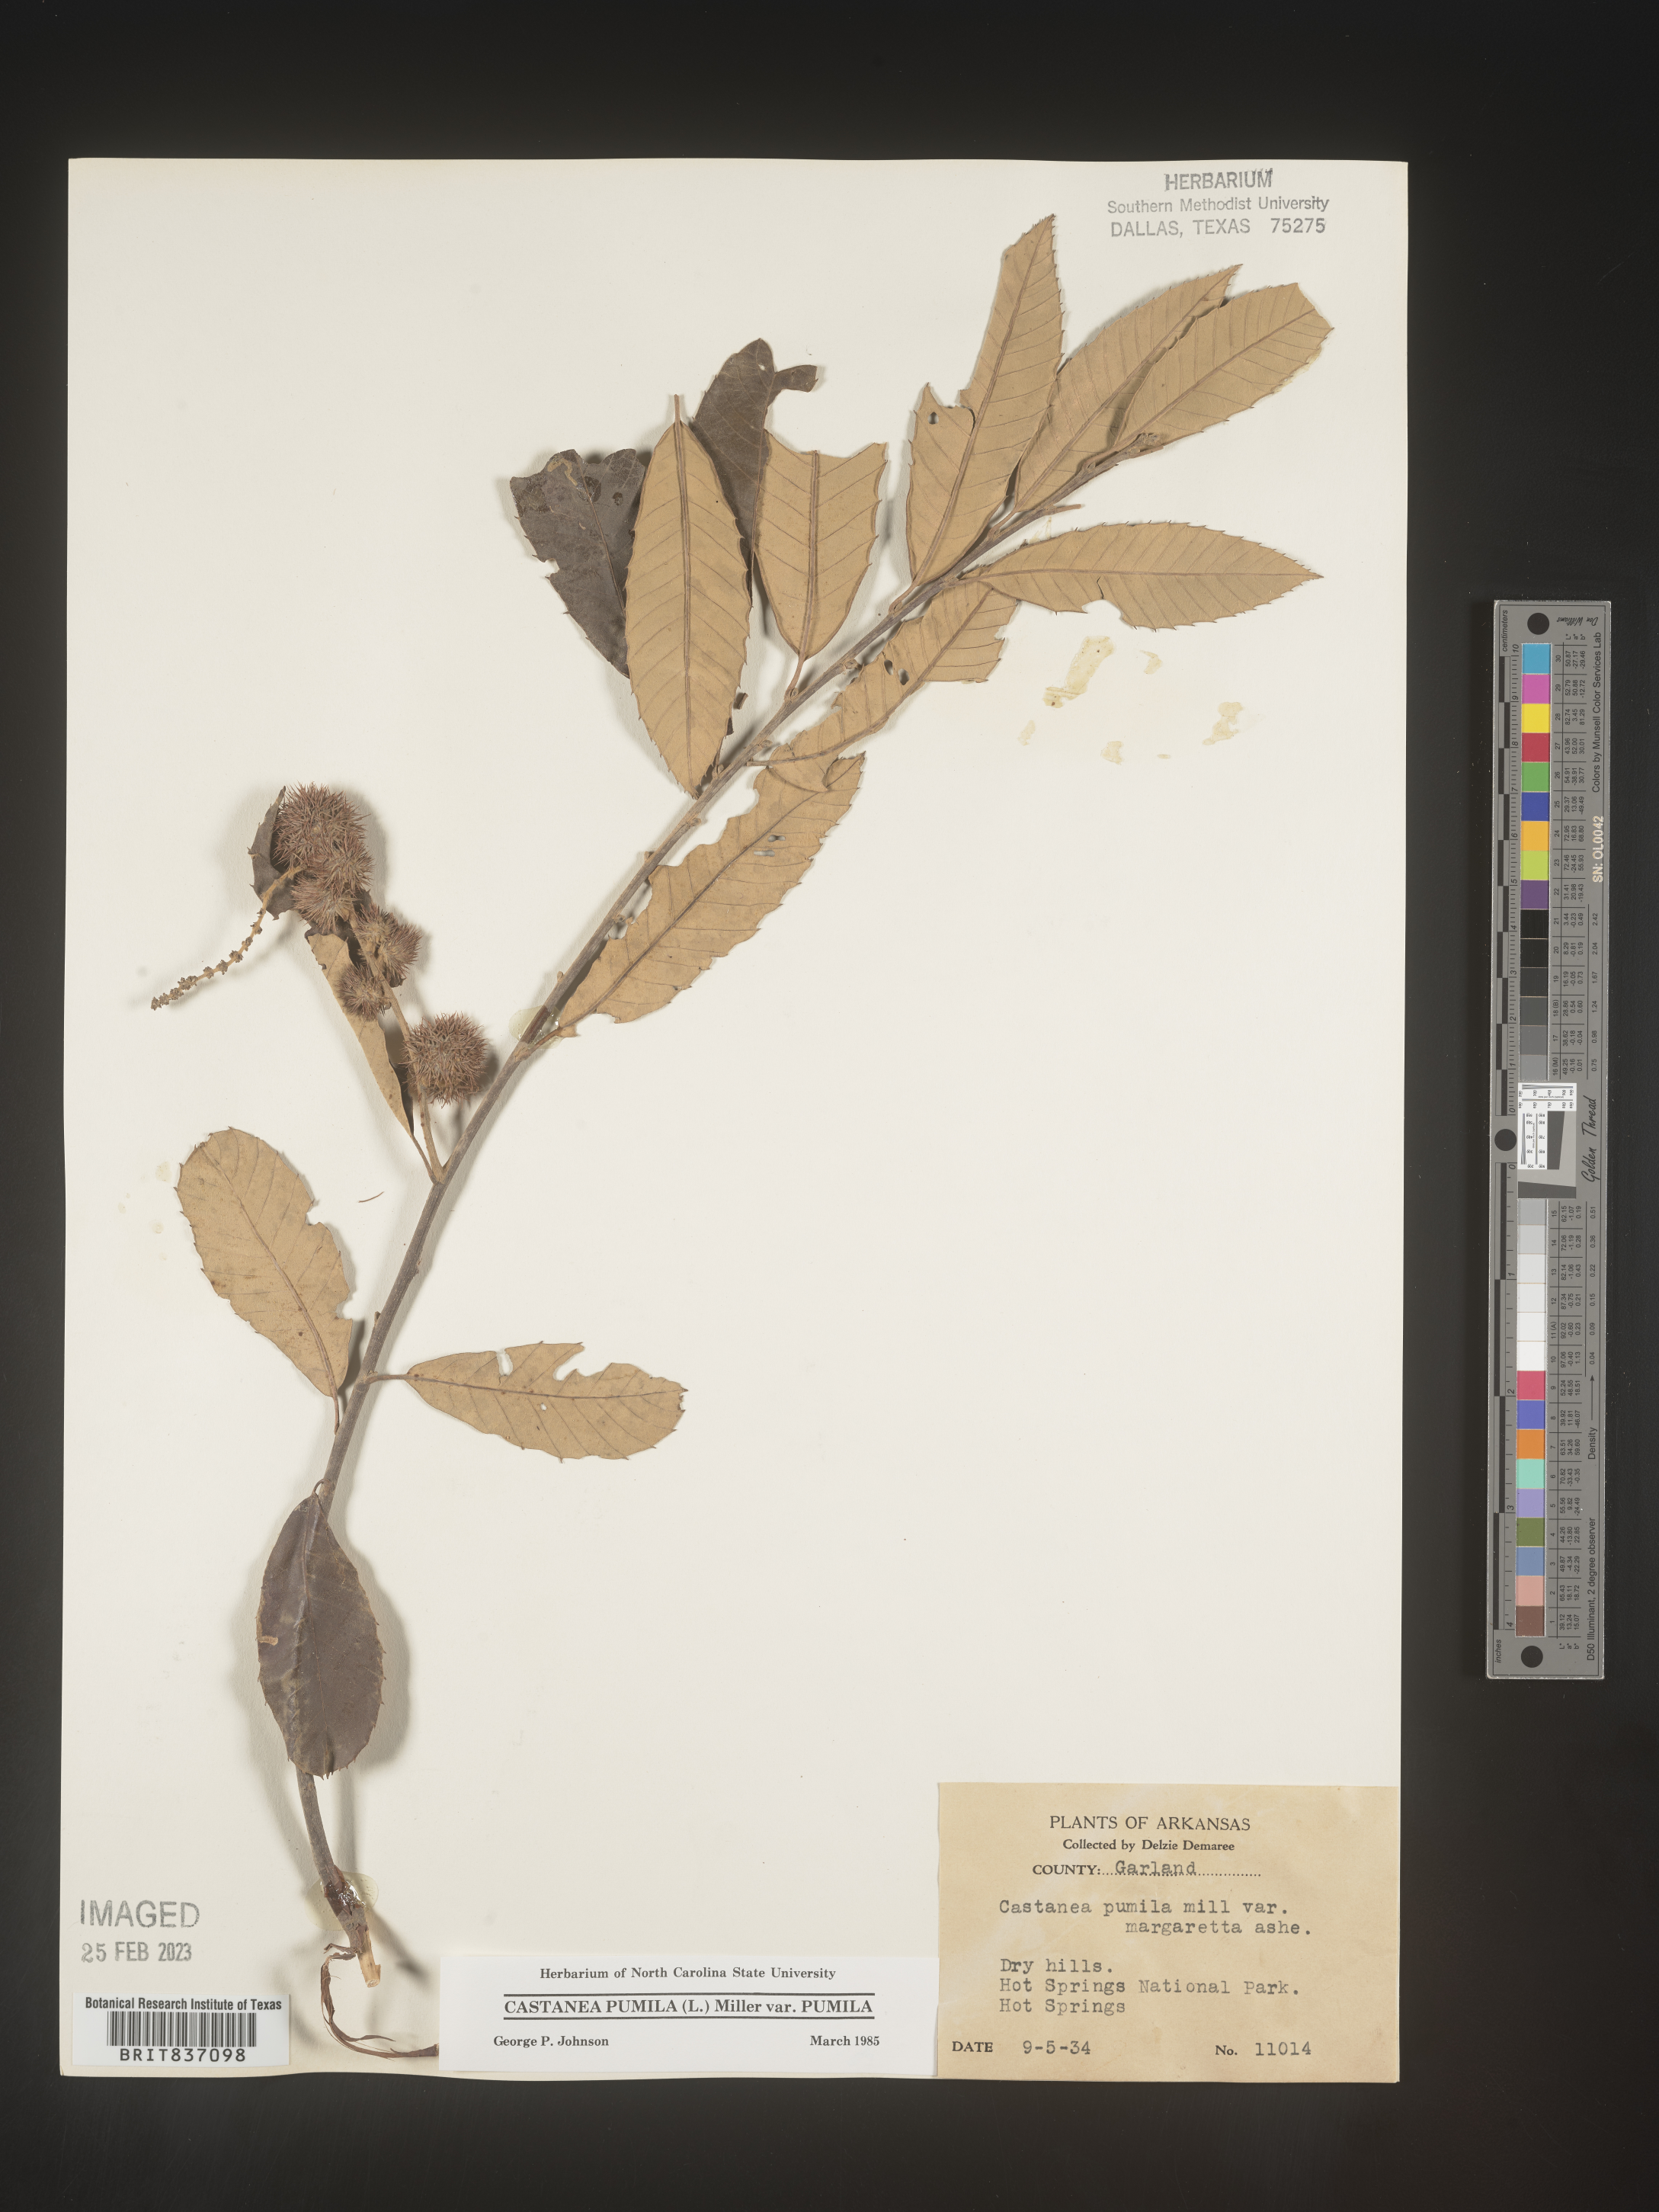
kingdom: Plantae
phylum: Tracheophyta
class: Magnoliopsida
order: Fagales
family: Fagaceae
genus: Castanea
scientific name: Castanea pumila
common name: Chinkapin
